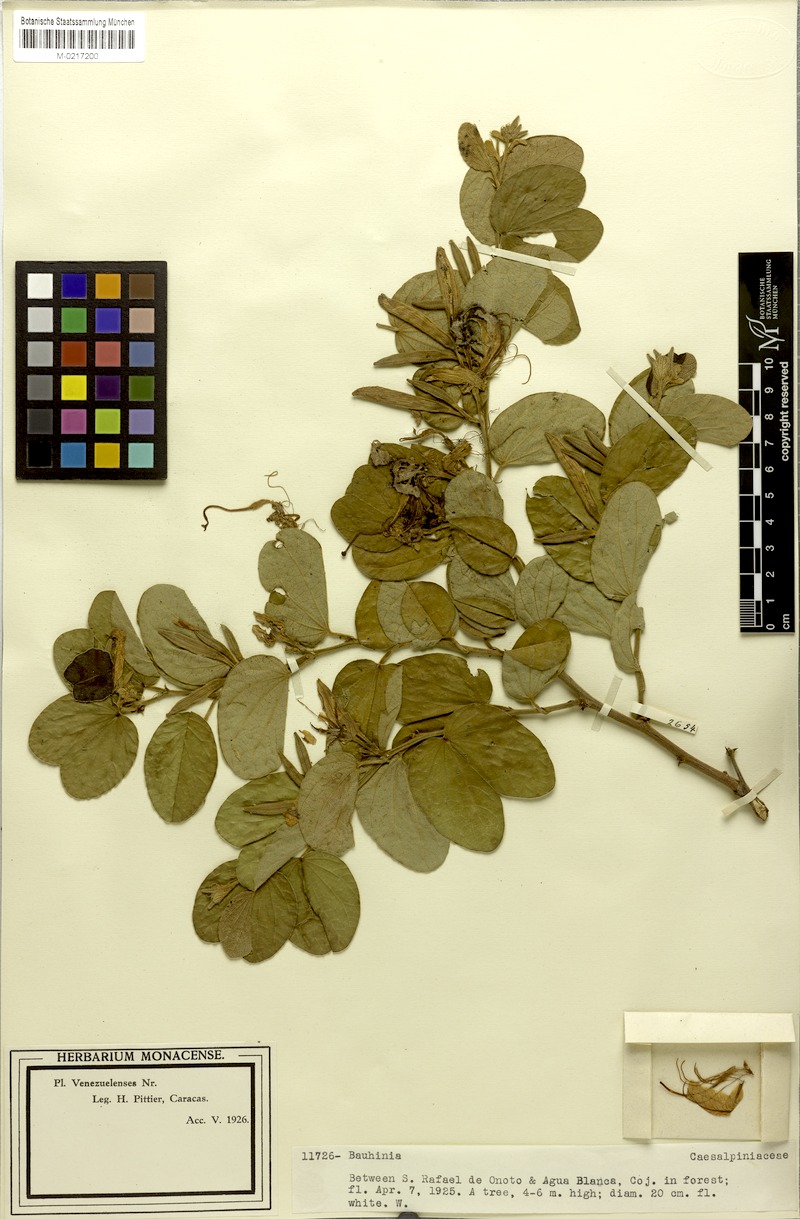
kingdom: Plantae
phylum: Tracheophyta
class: Magnoliopsida
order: Fabales
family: Fabaceae
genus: Bauhinia
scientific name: Bauhinia aculeata
